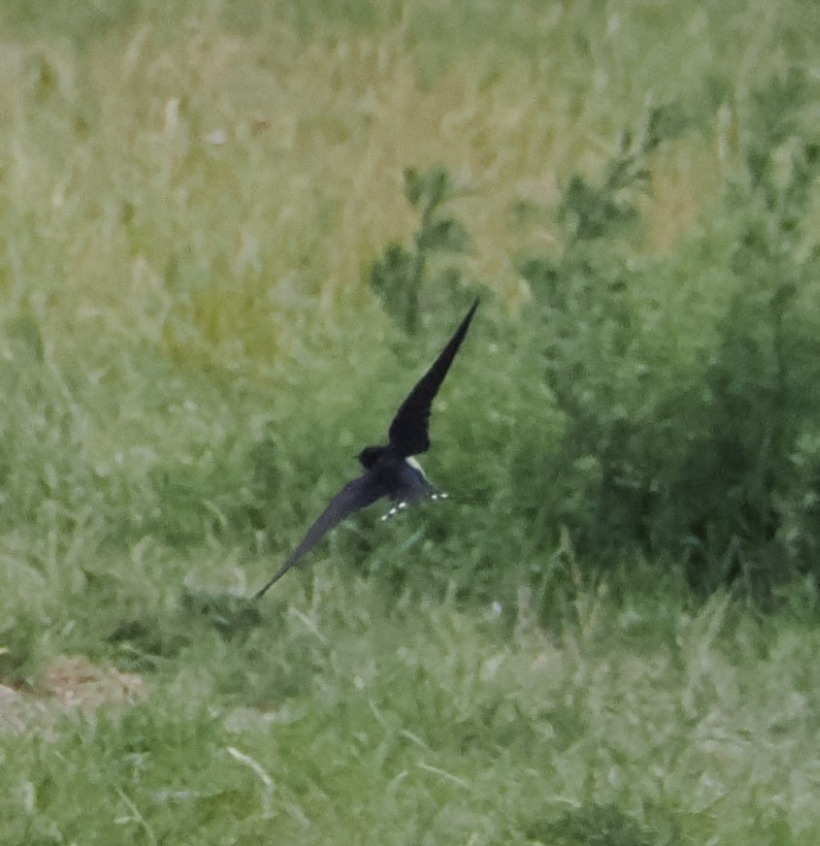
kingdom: Animalia
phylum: Chordata
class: Aves
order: Passeriformes
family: Hirundinidae
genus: Hirundo
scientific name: Hirundo rustica
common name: Landsvale
